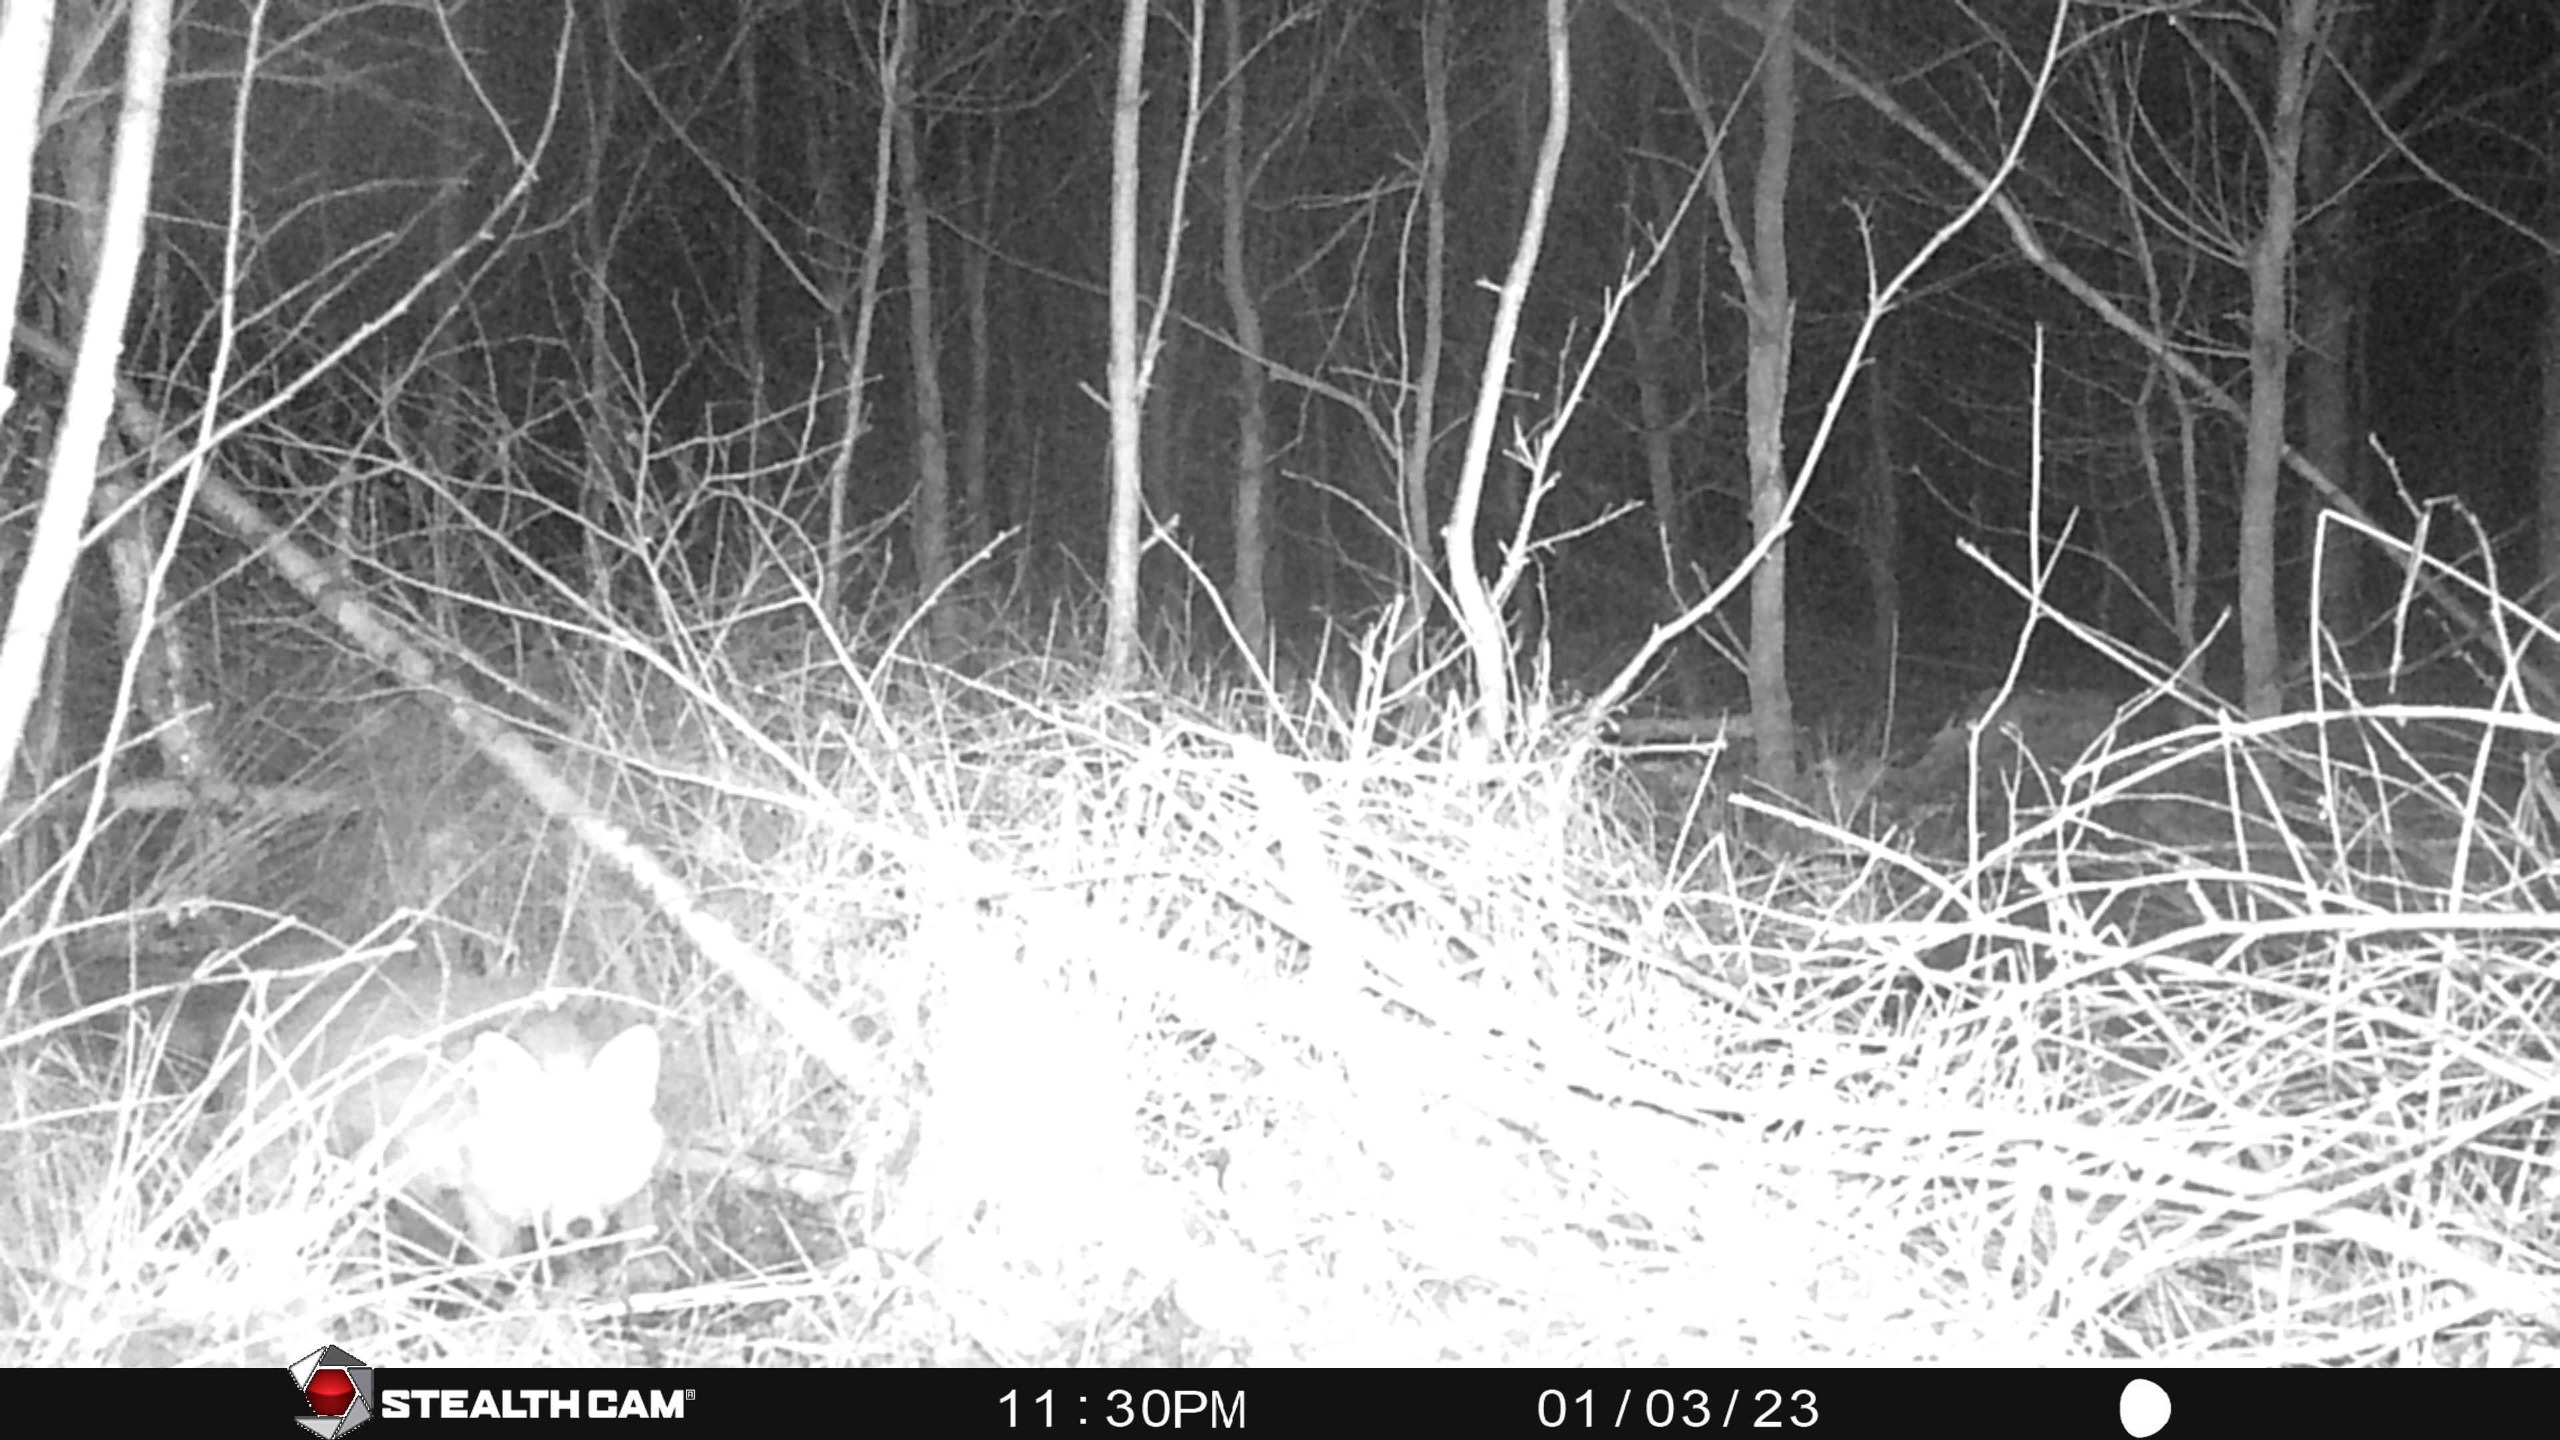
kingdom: Animalia
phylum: Chordata
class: Mammalia
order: Carnivora
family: Canidae
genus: Vulpes
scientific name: Vulpes vulpes
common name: Ræv
